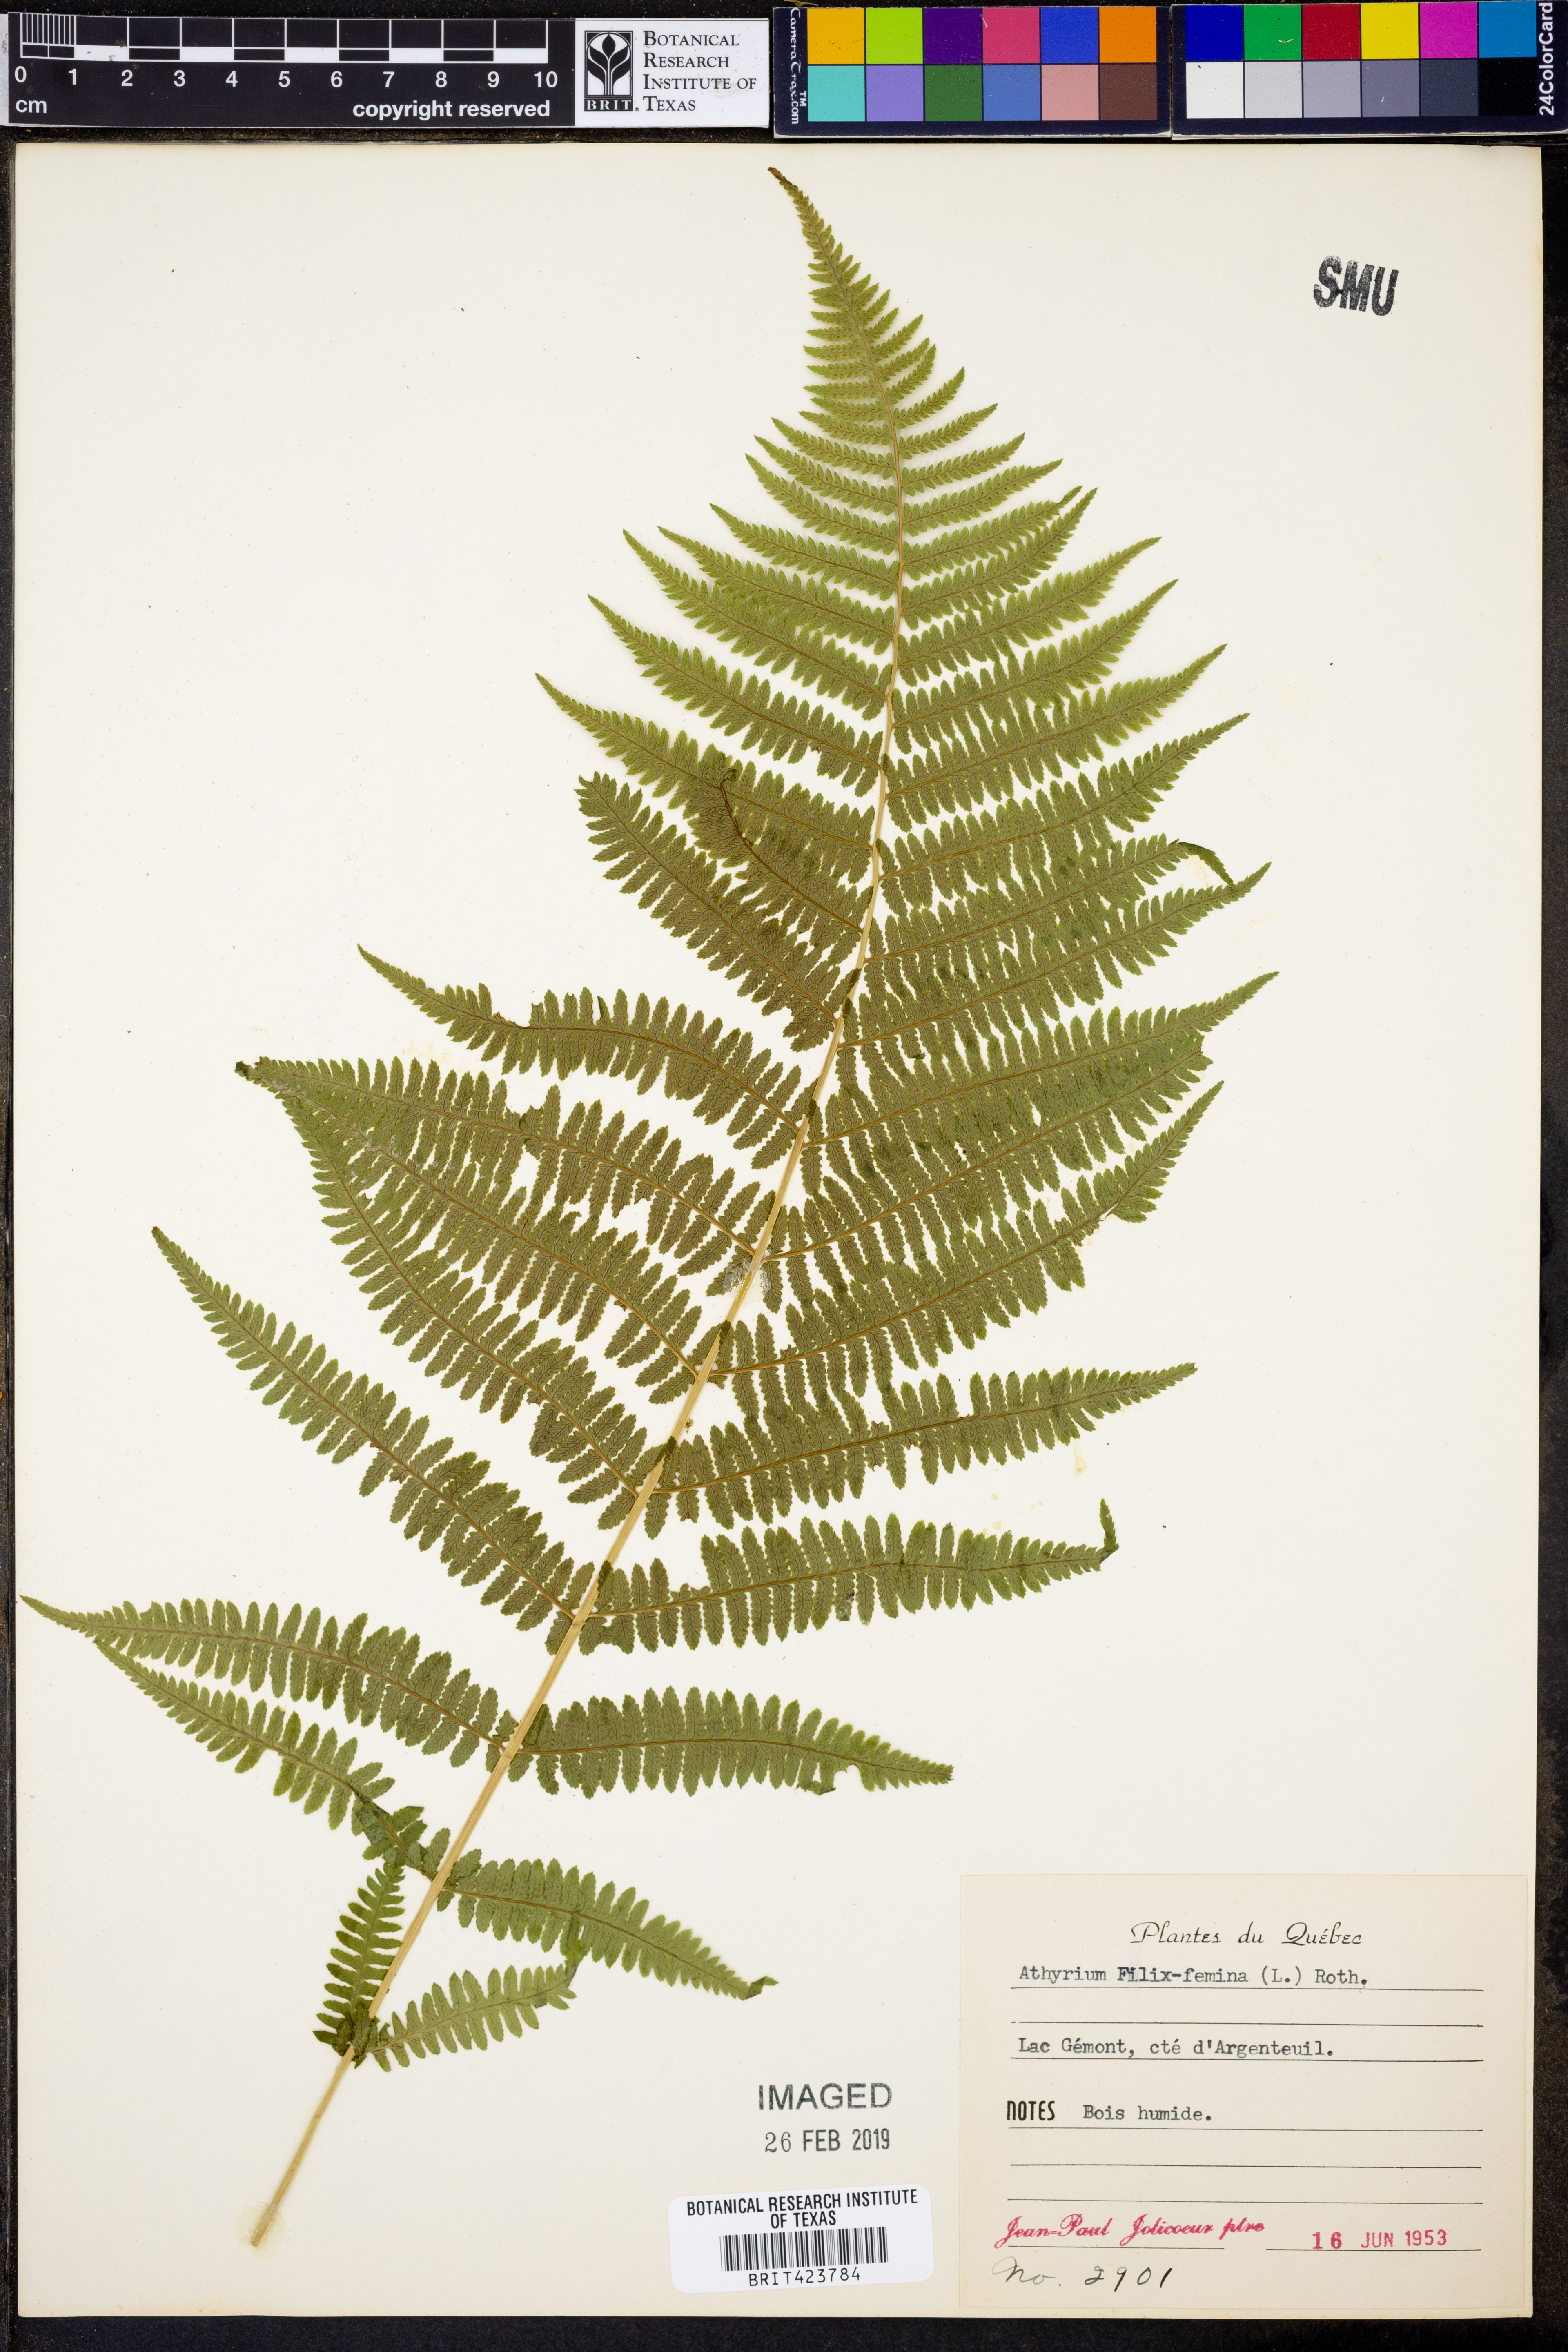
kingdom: Plantae
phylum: Tracheophyta
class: Polypodiopsida
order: Polypodiales
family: Athyriaceae
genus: Athyrium
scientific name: Athyrium filix-femina
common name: Lady fern
